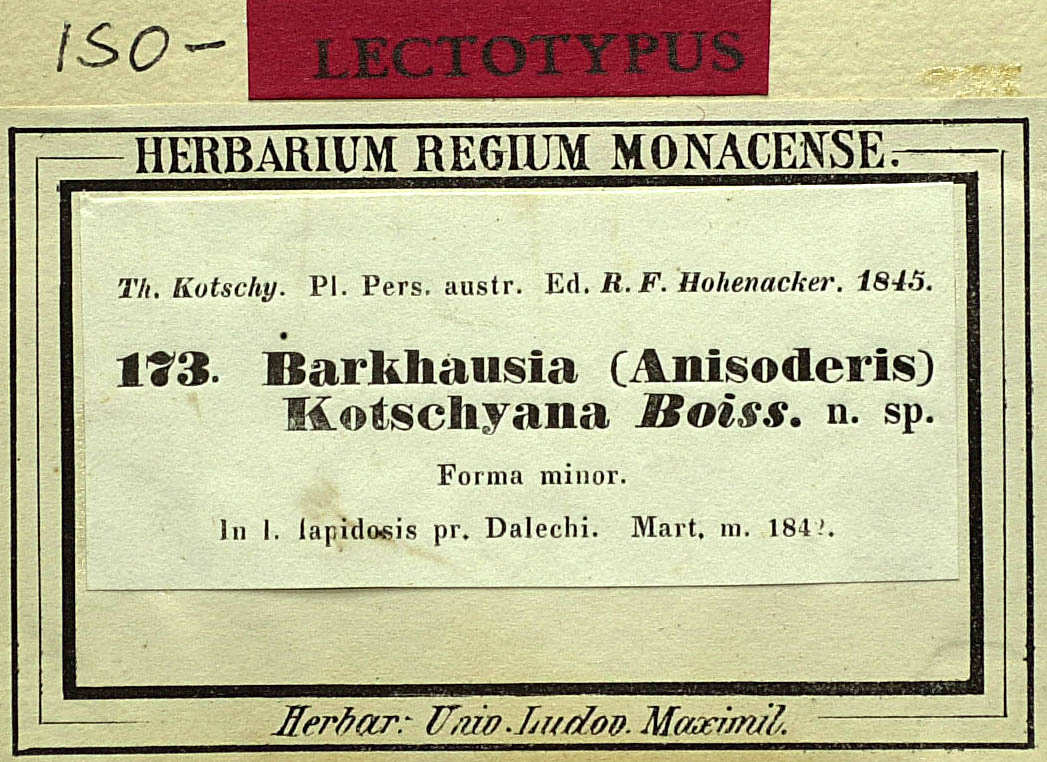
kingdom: Plantae
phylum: Tracheophyta
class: Magnoliopsida
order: Asterales
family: Asteraceae
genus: Crepis
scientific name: Crepis kotschyana
